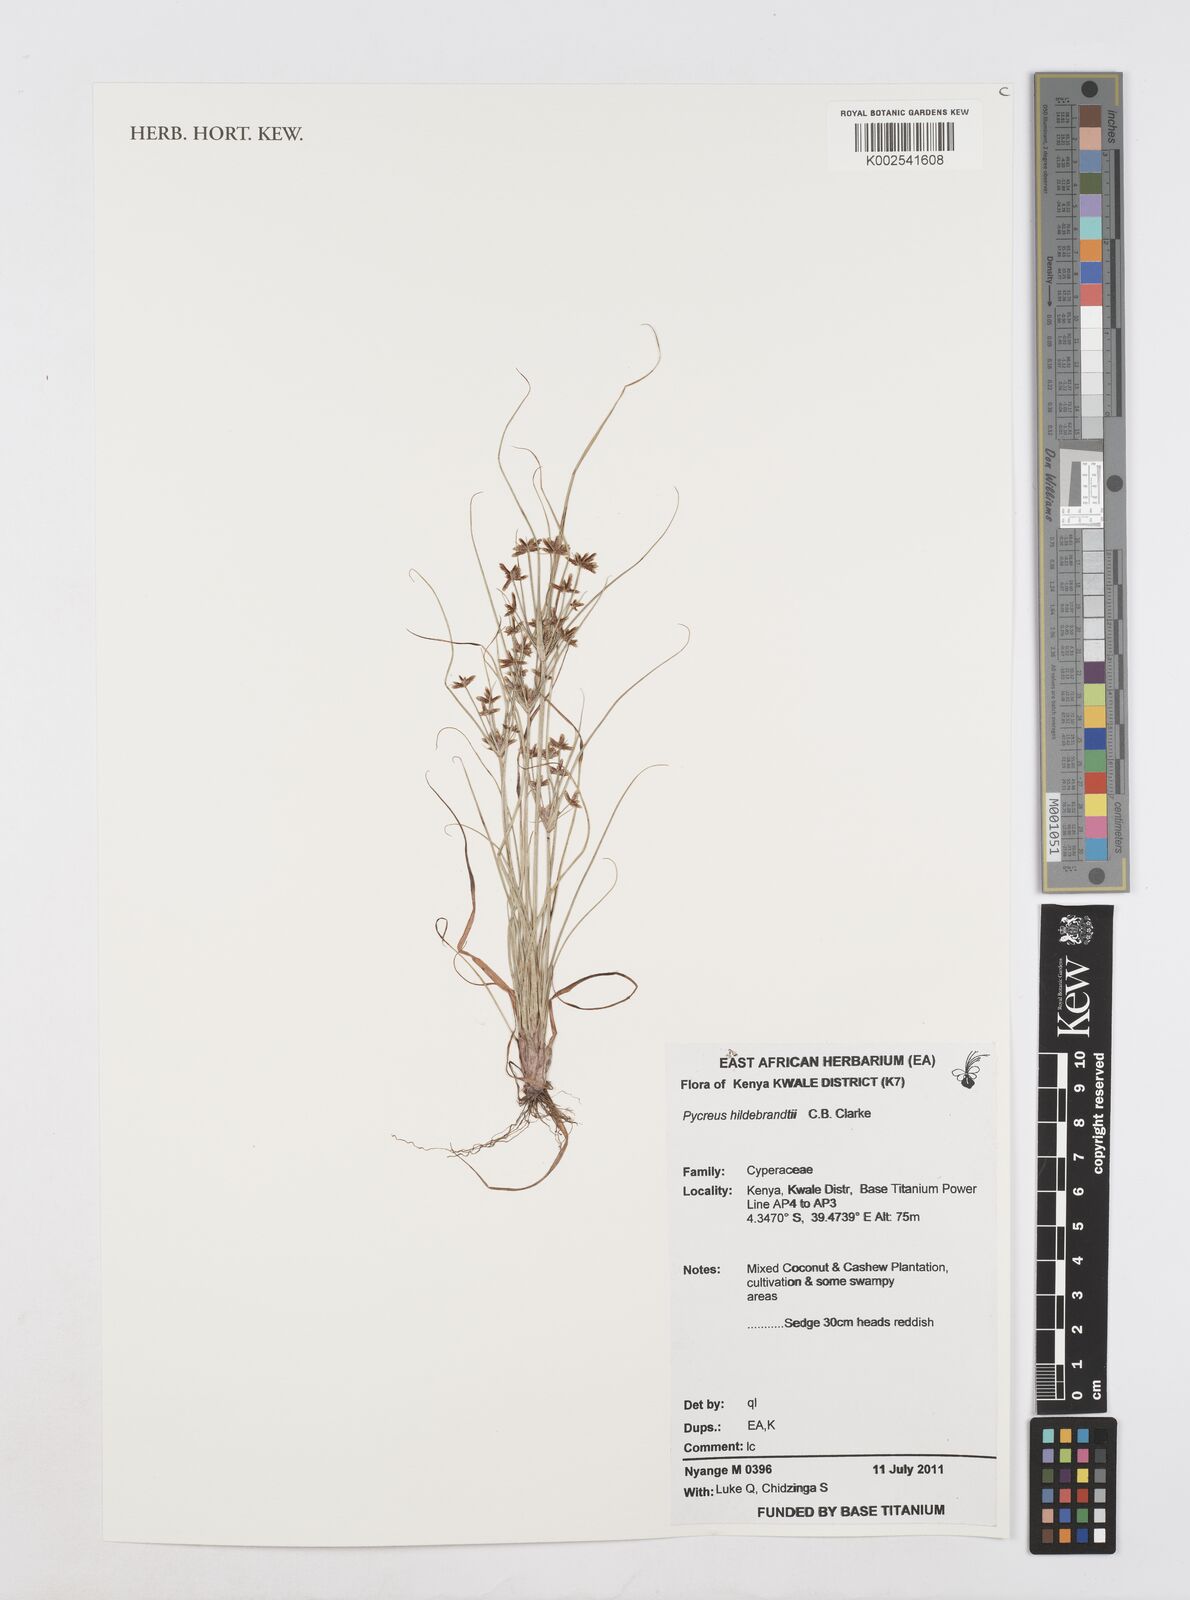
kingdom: Plantae
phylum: Tracheophyta
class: Liliopsida
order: Poales
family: Cyperaceae
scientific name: Cyperaceae
